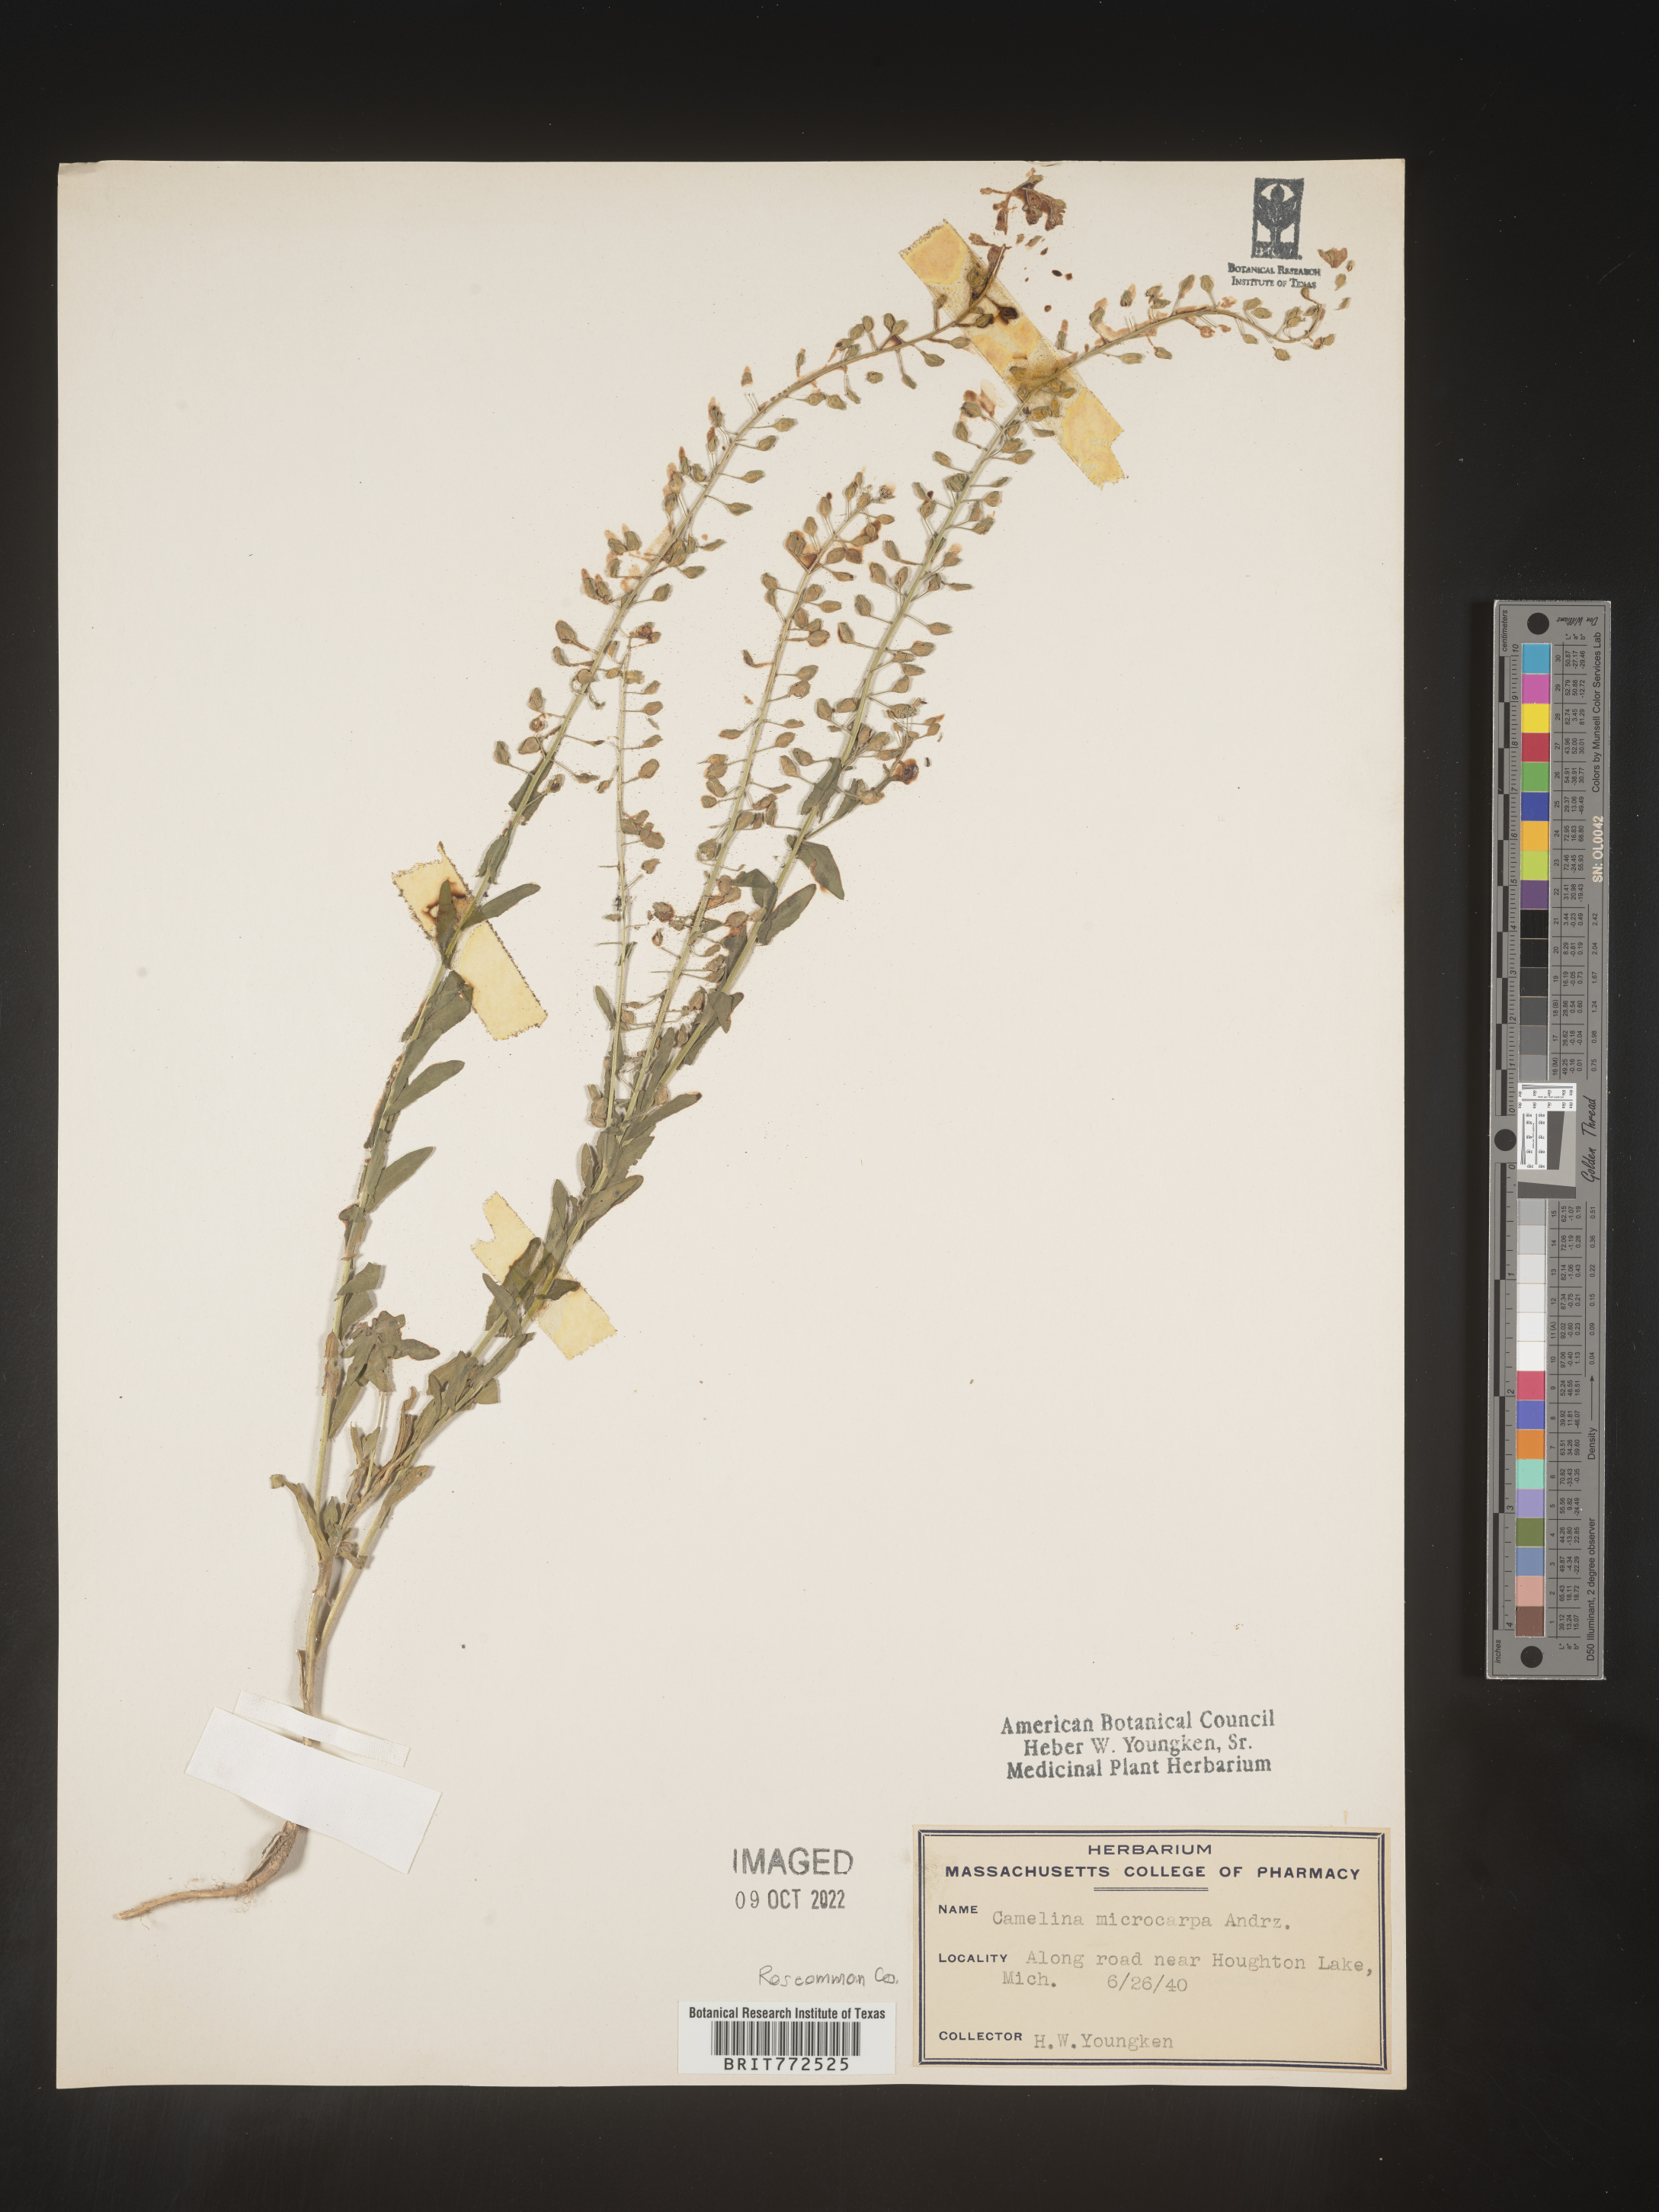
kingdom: Plantae
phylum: Tracheophyta
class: Magnoliopsida
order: Brassicales
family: Brassicaceae
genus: Camelina
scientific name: Camelina microcarpa
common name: Lesser gold-of-pleasure
